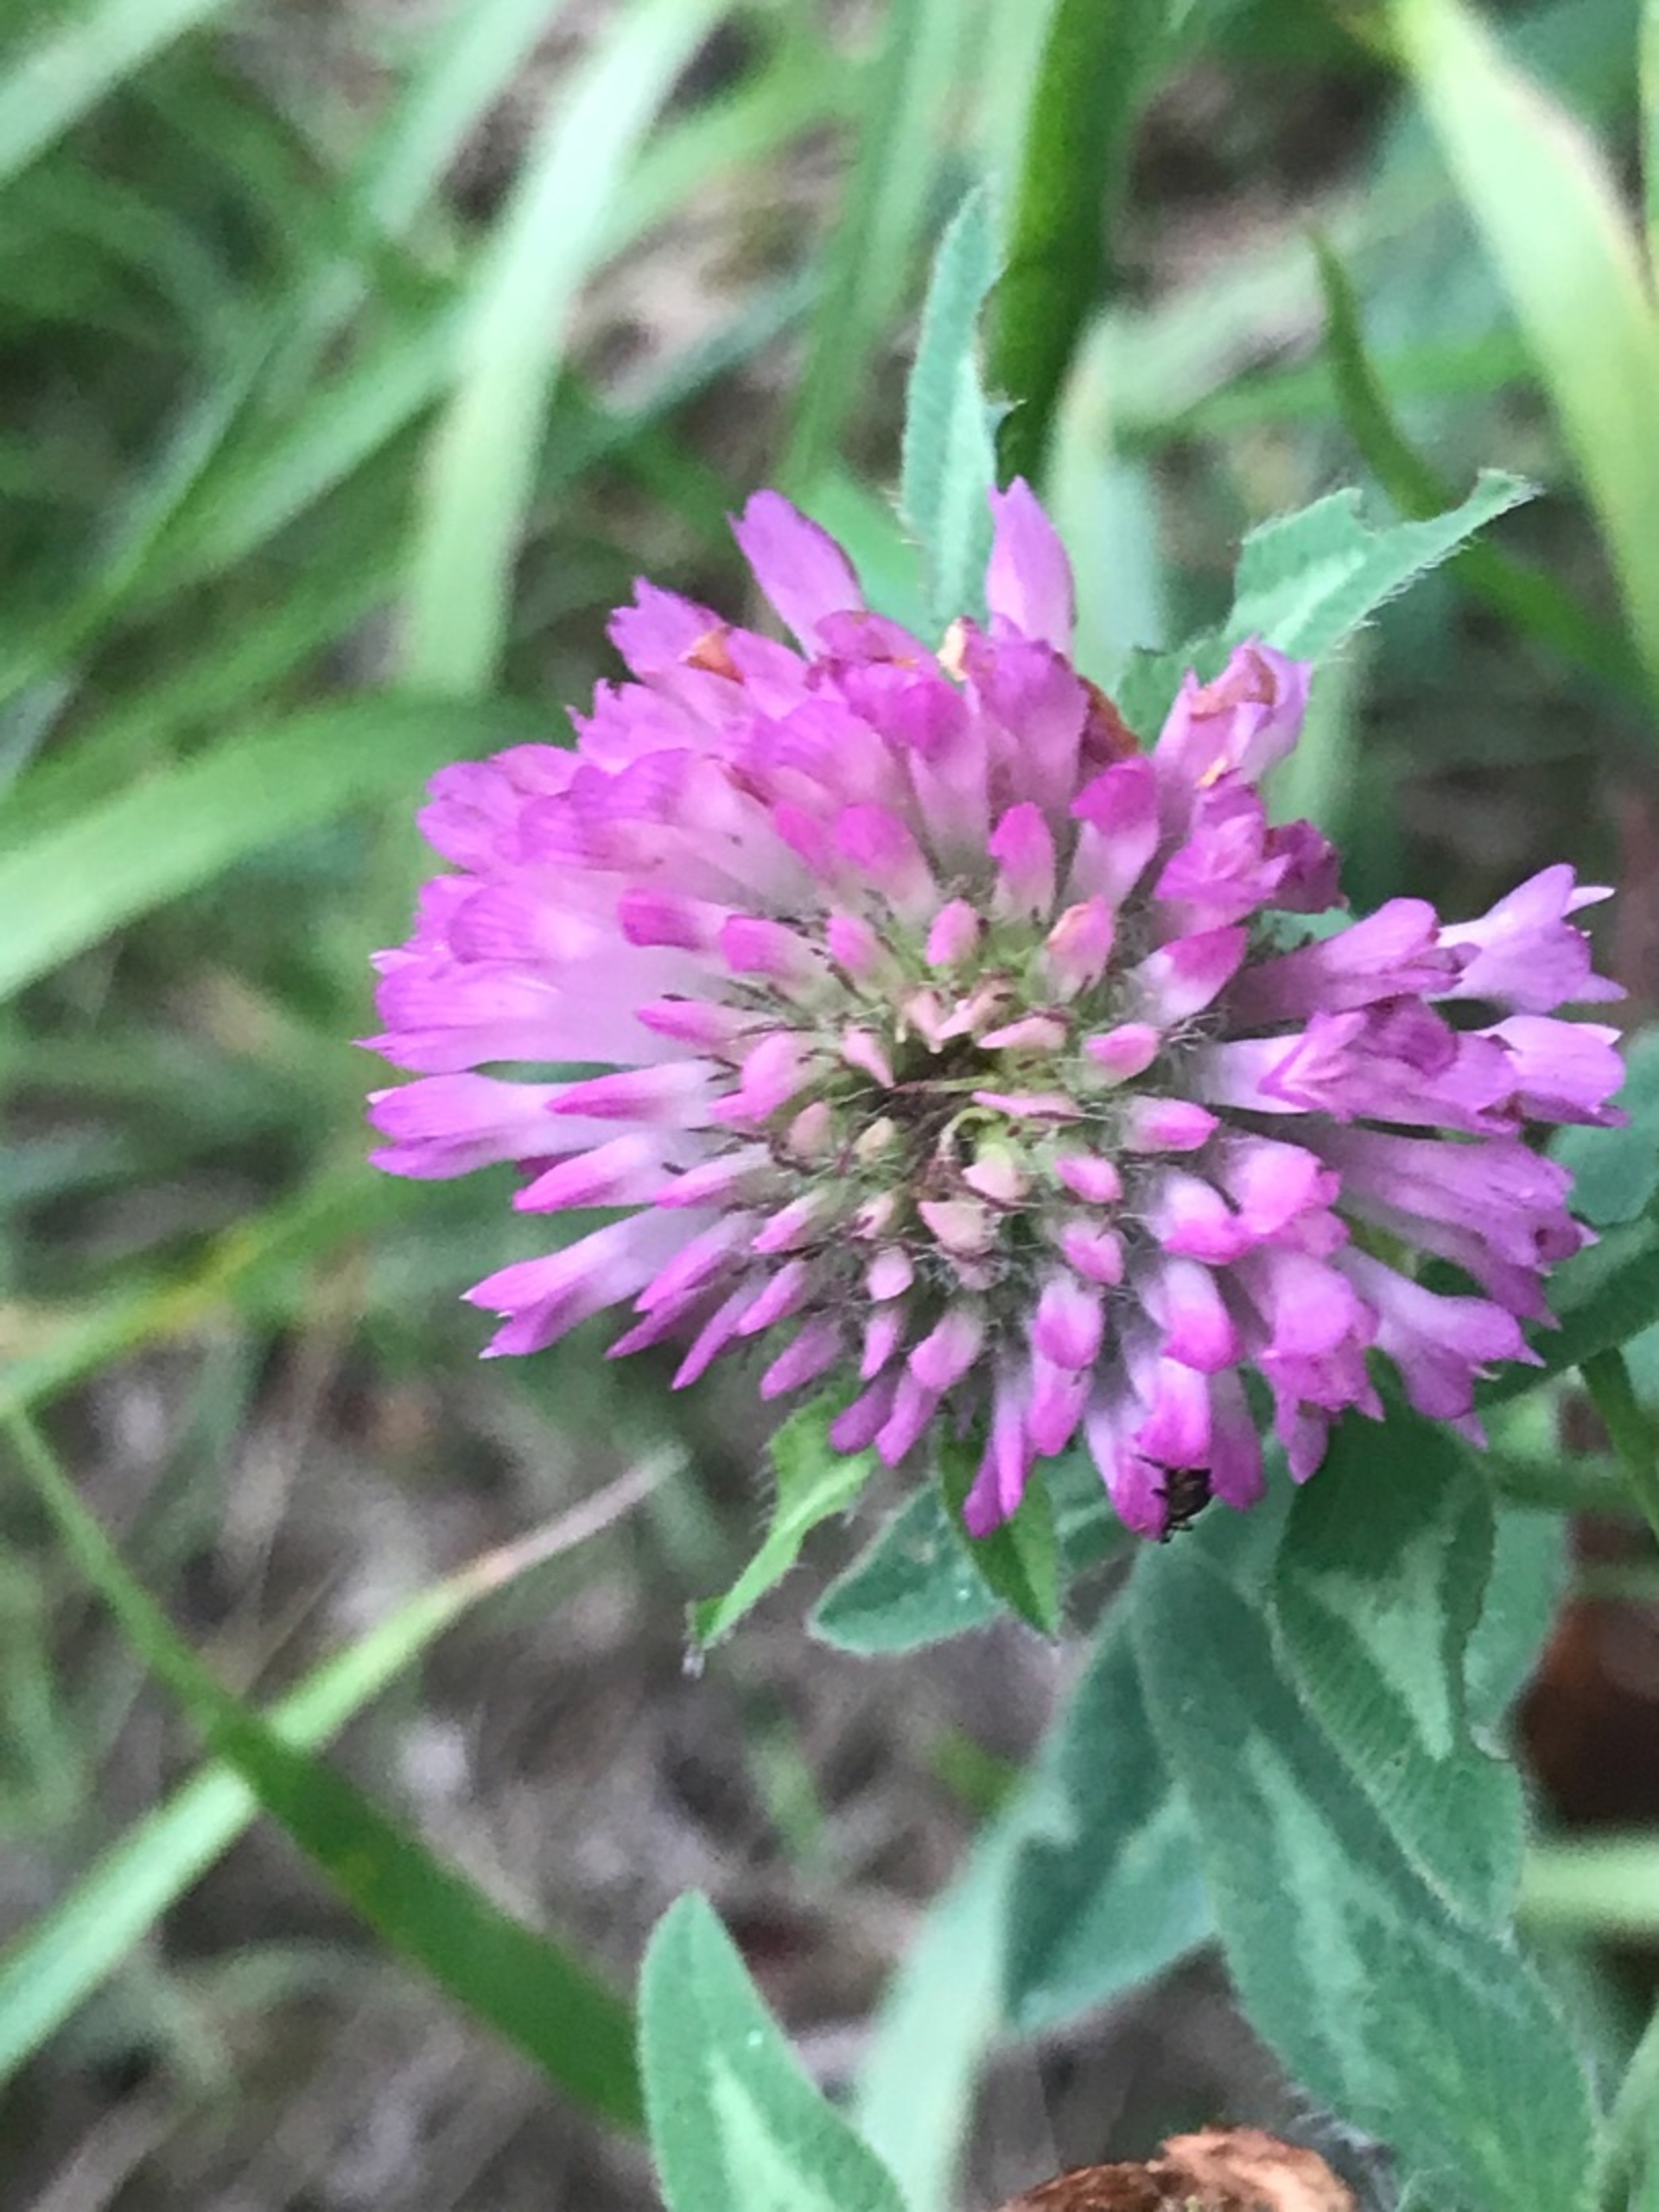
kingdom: Plantae
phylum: Tracheophyta
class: Magnoliopsida
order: Fabales
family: Fabaceae
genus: Trifolium
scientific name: Trifolium pratense
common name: Rød-kløver
